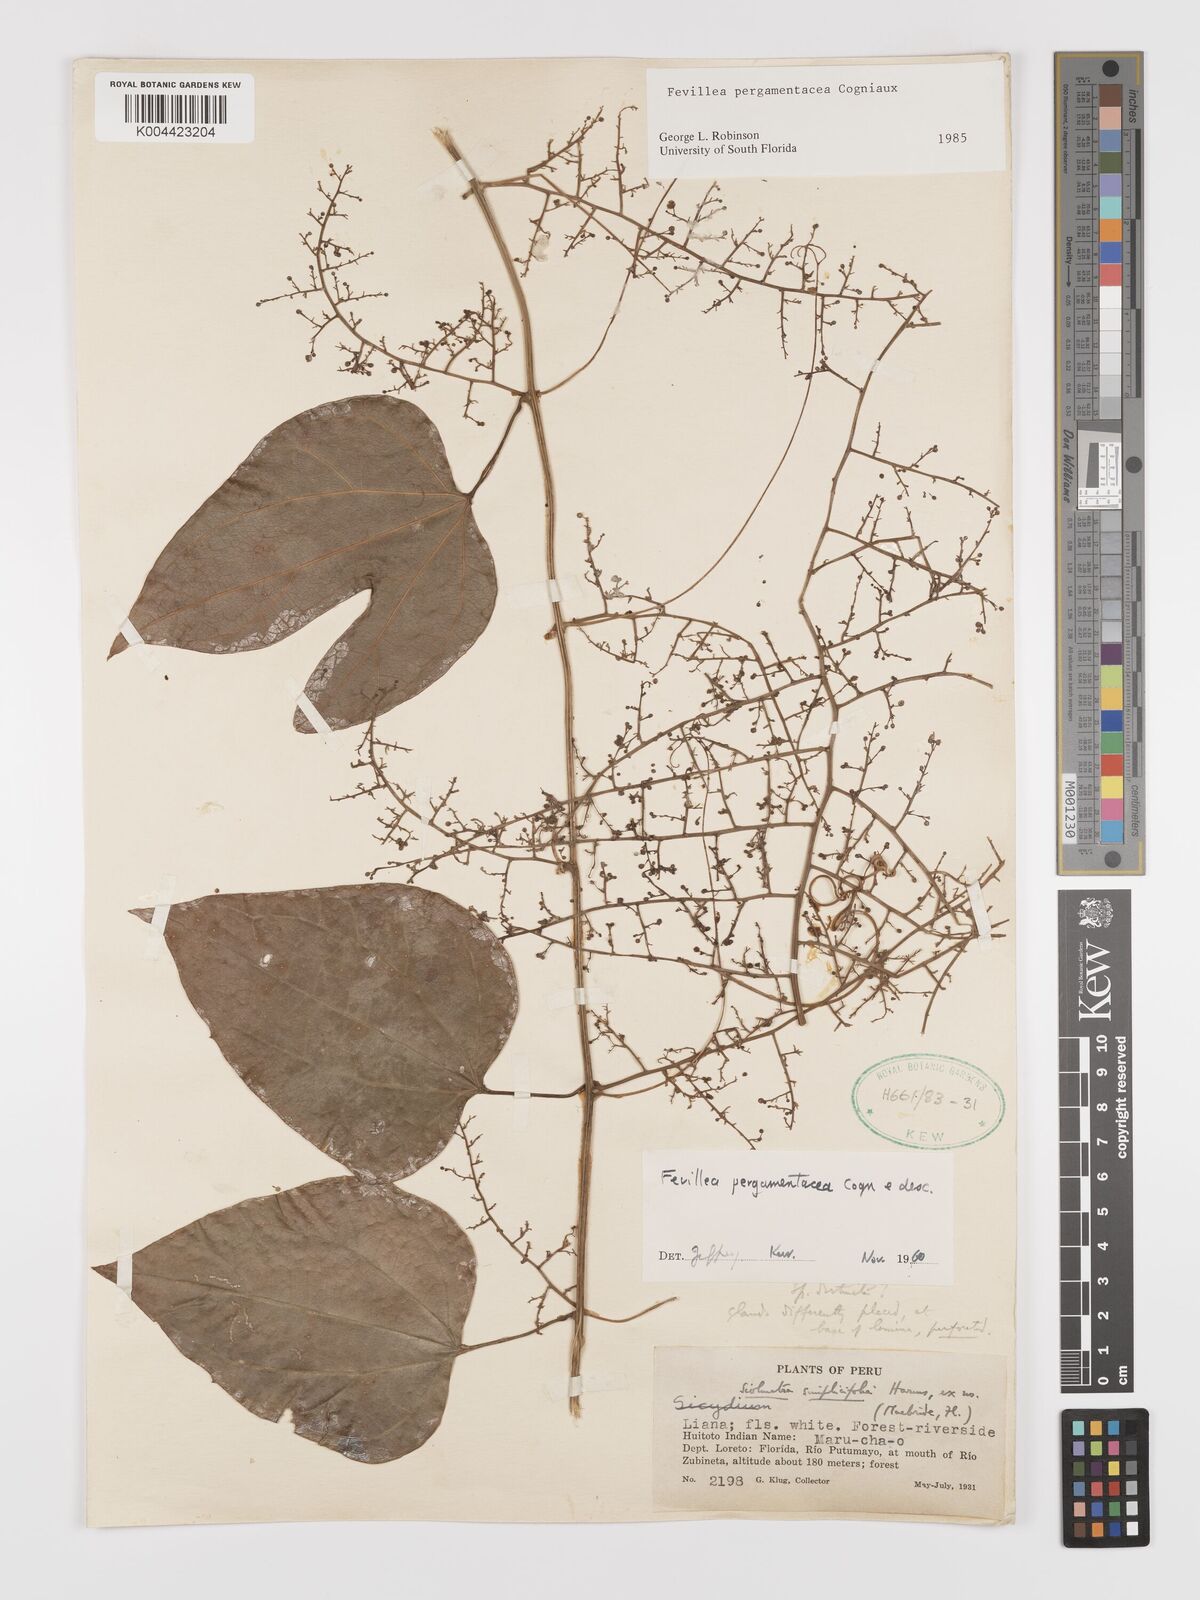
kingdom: Plantae
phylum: Tracheophyta
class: Magnoliopsida
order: Cucurbitales
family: Cucurbitaceae
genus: Fevillea
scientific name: Fevillea pergamentacea
